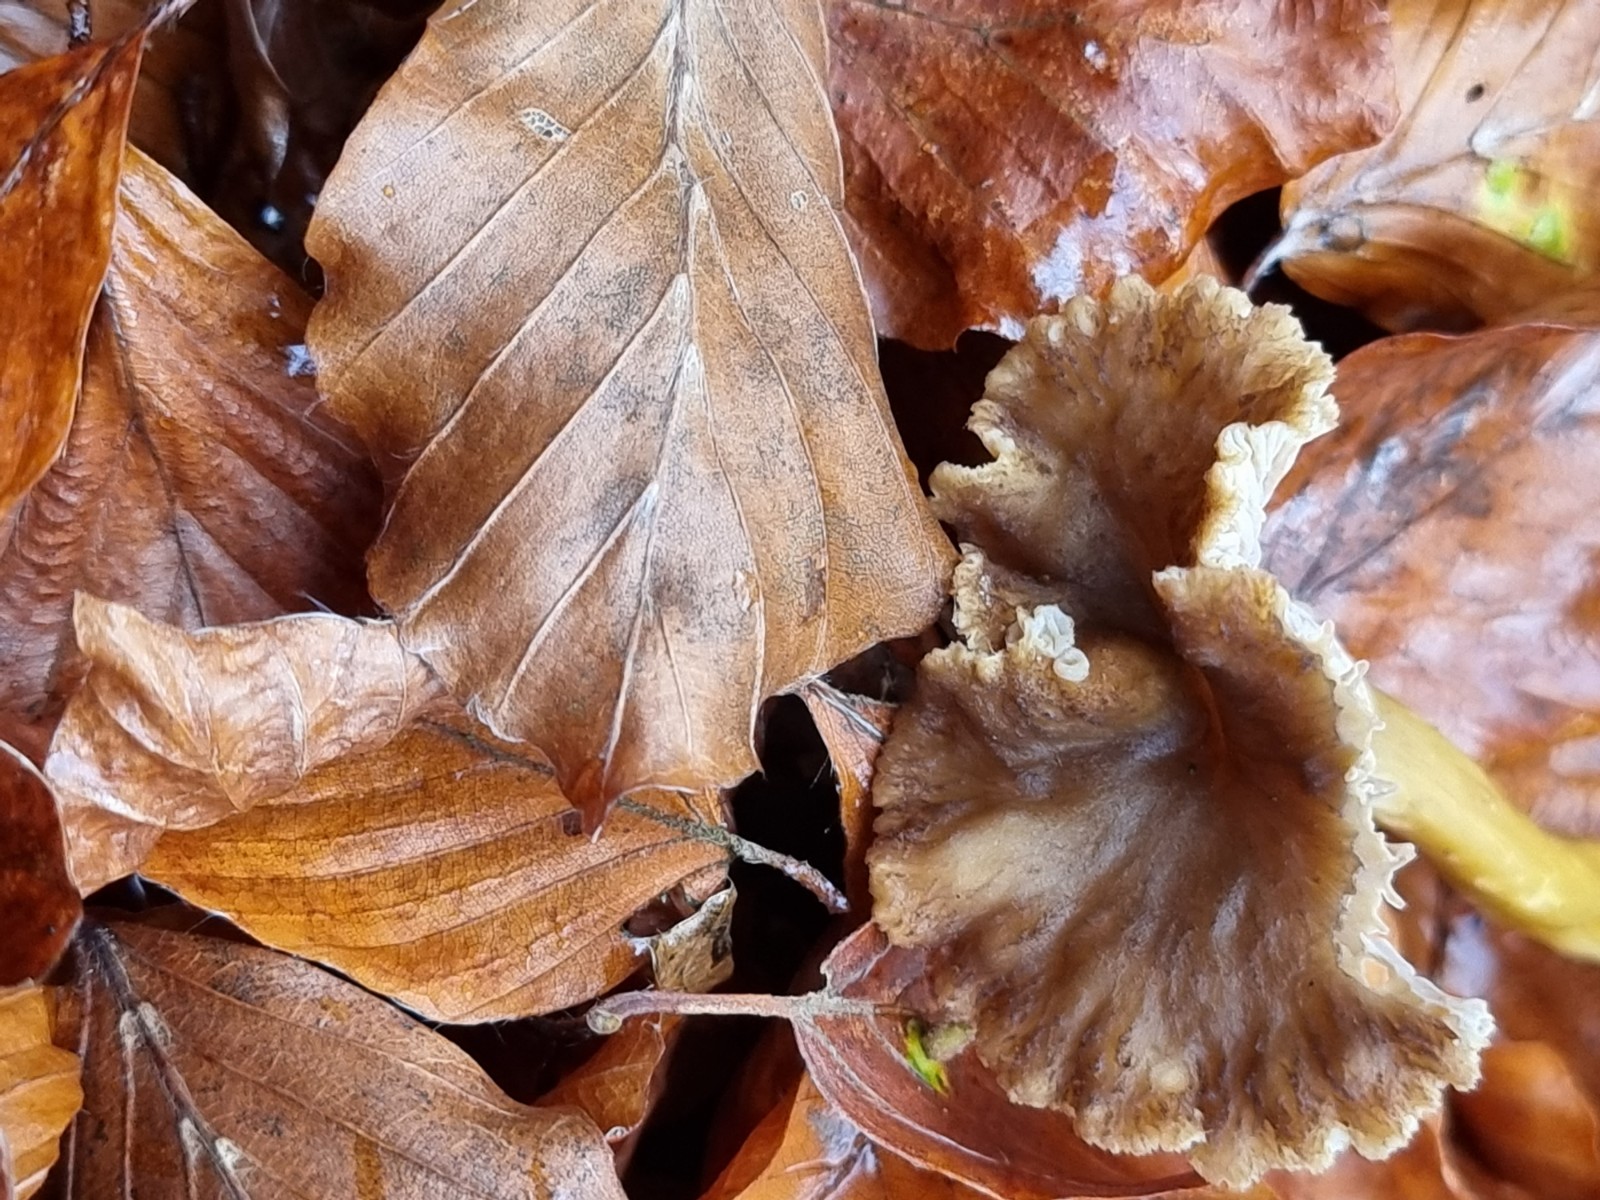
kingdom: Fungi
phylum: Basidiomycota
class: Agaricomycetes
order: Cantharellales
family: Hydnaceae
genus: Craterellus
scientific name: Craterellus tubaeformis
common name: tragt-kantarel
